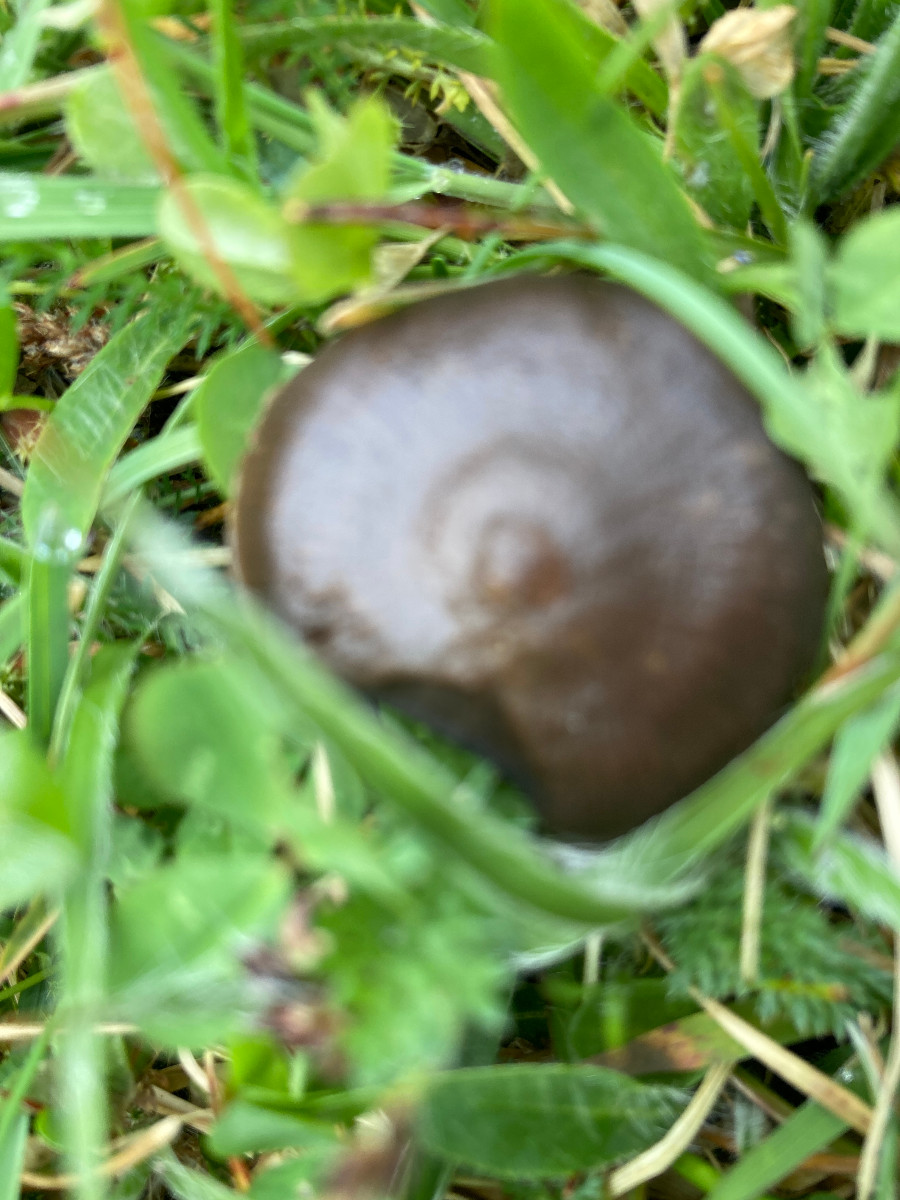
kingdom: Fungi
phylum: Basidiomycota
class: Agaricomycetes
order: Agaricales
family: Entolomataceae
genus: Entoloma
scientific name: Entoloma
